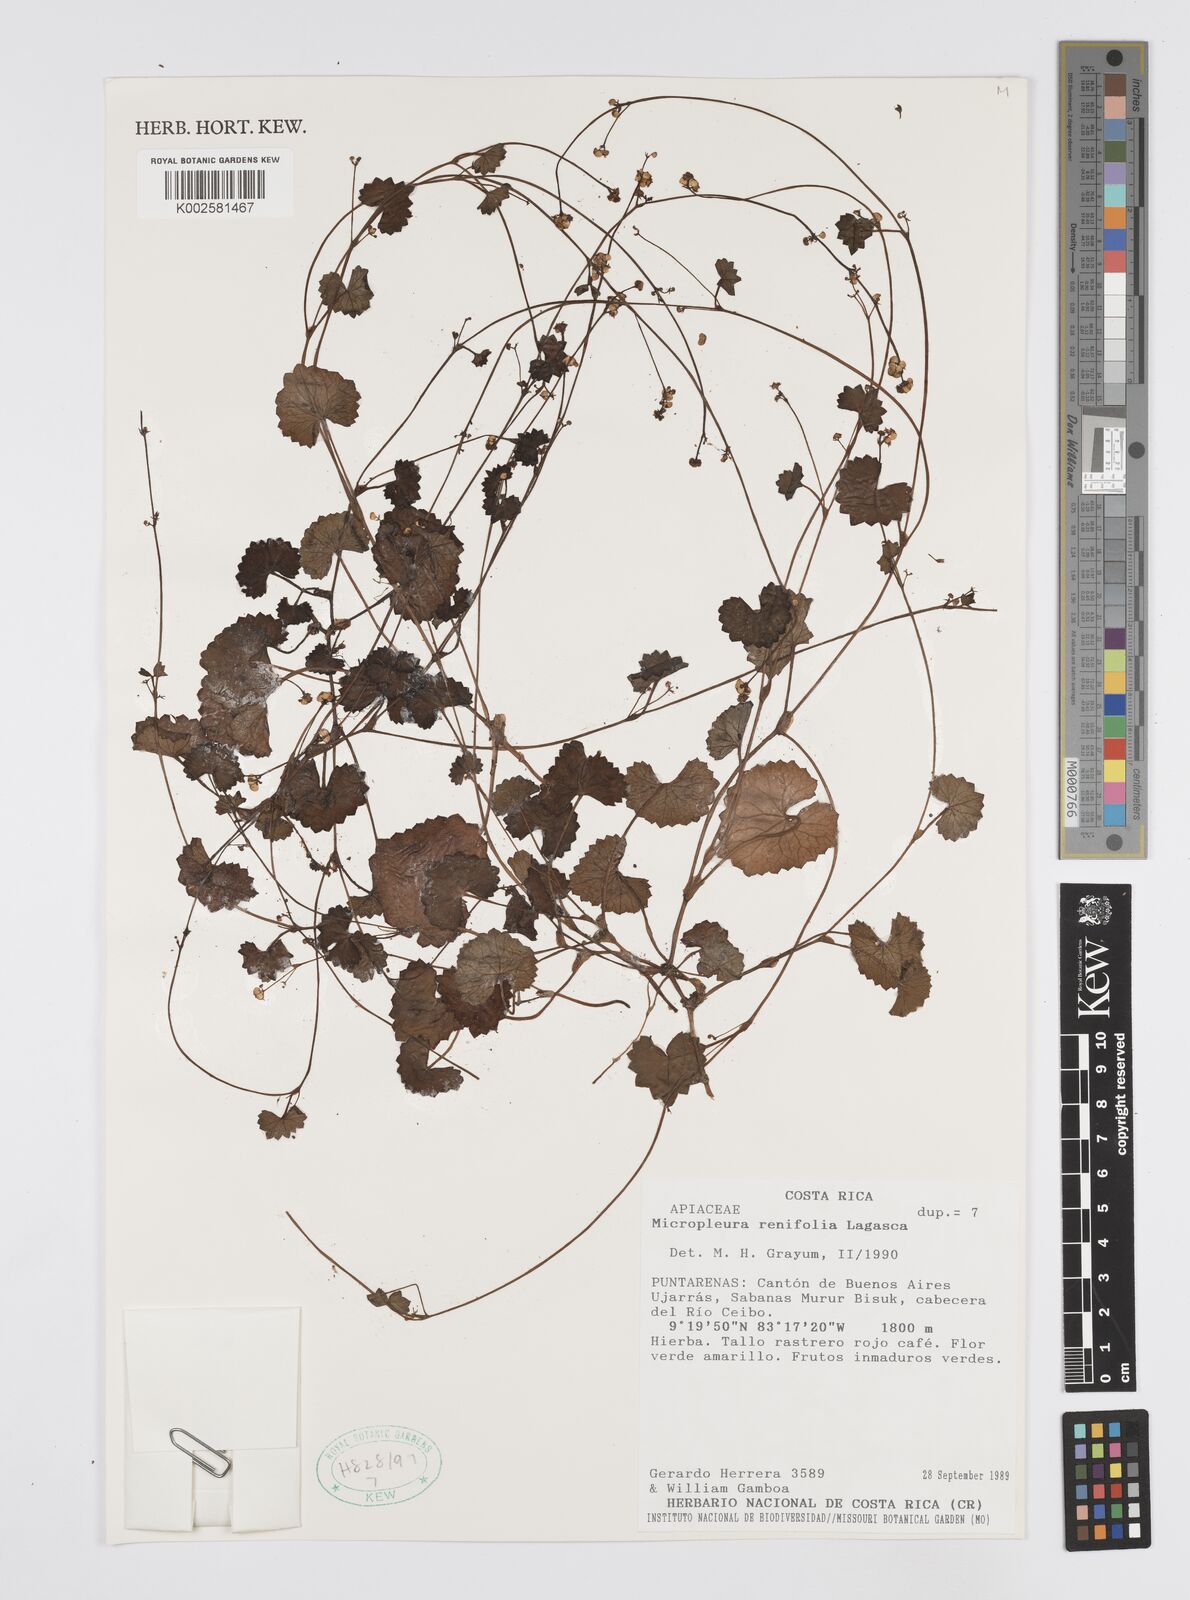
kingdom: Plantae
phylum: Tracheophyta
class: Magnoliopsida
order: Apiales
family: Apiaceae
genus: Micropleura
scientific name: Micropleura renifolia
